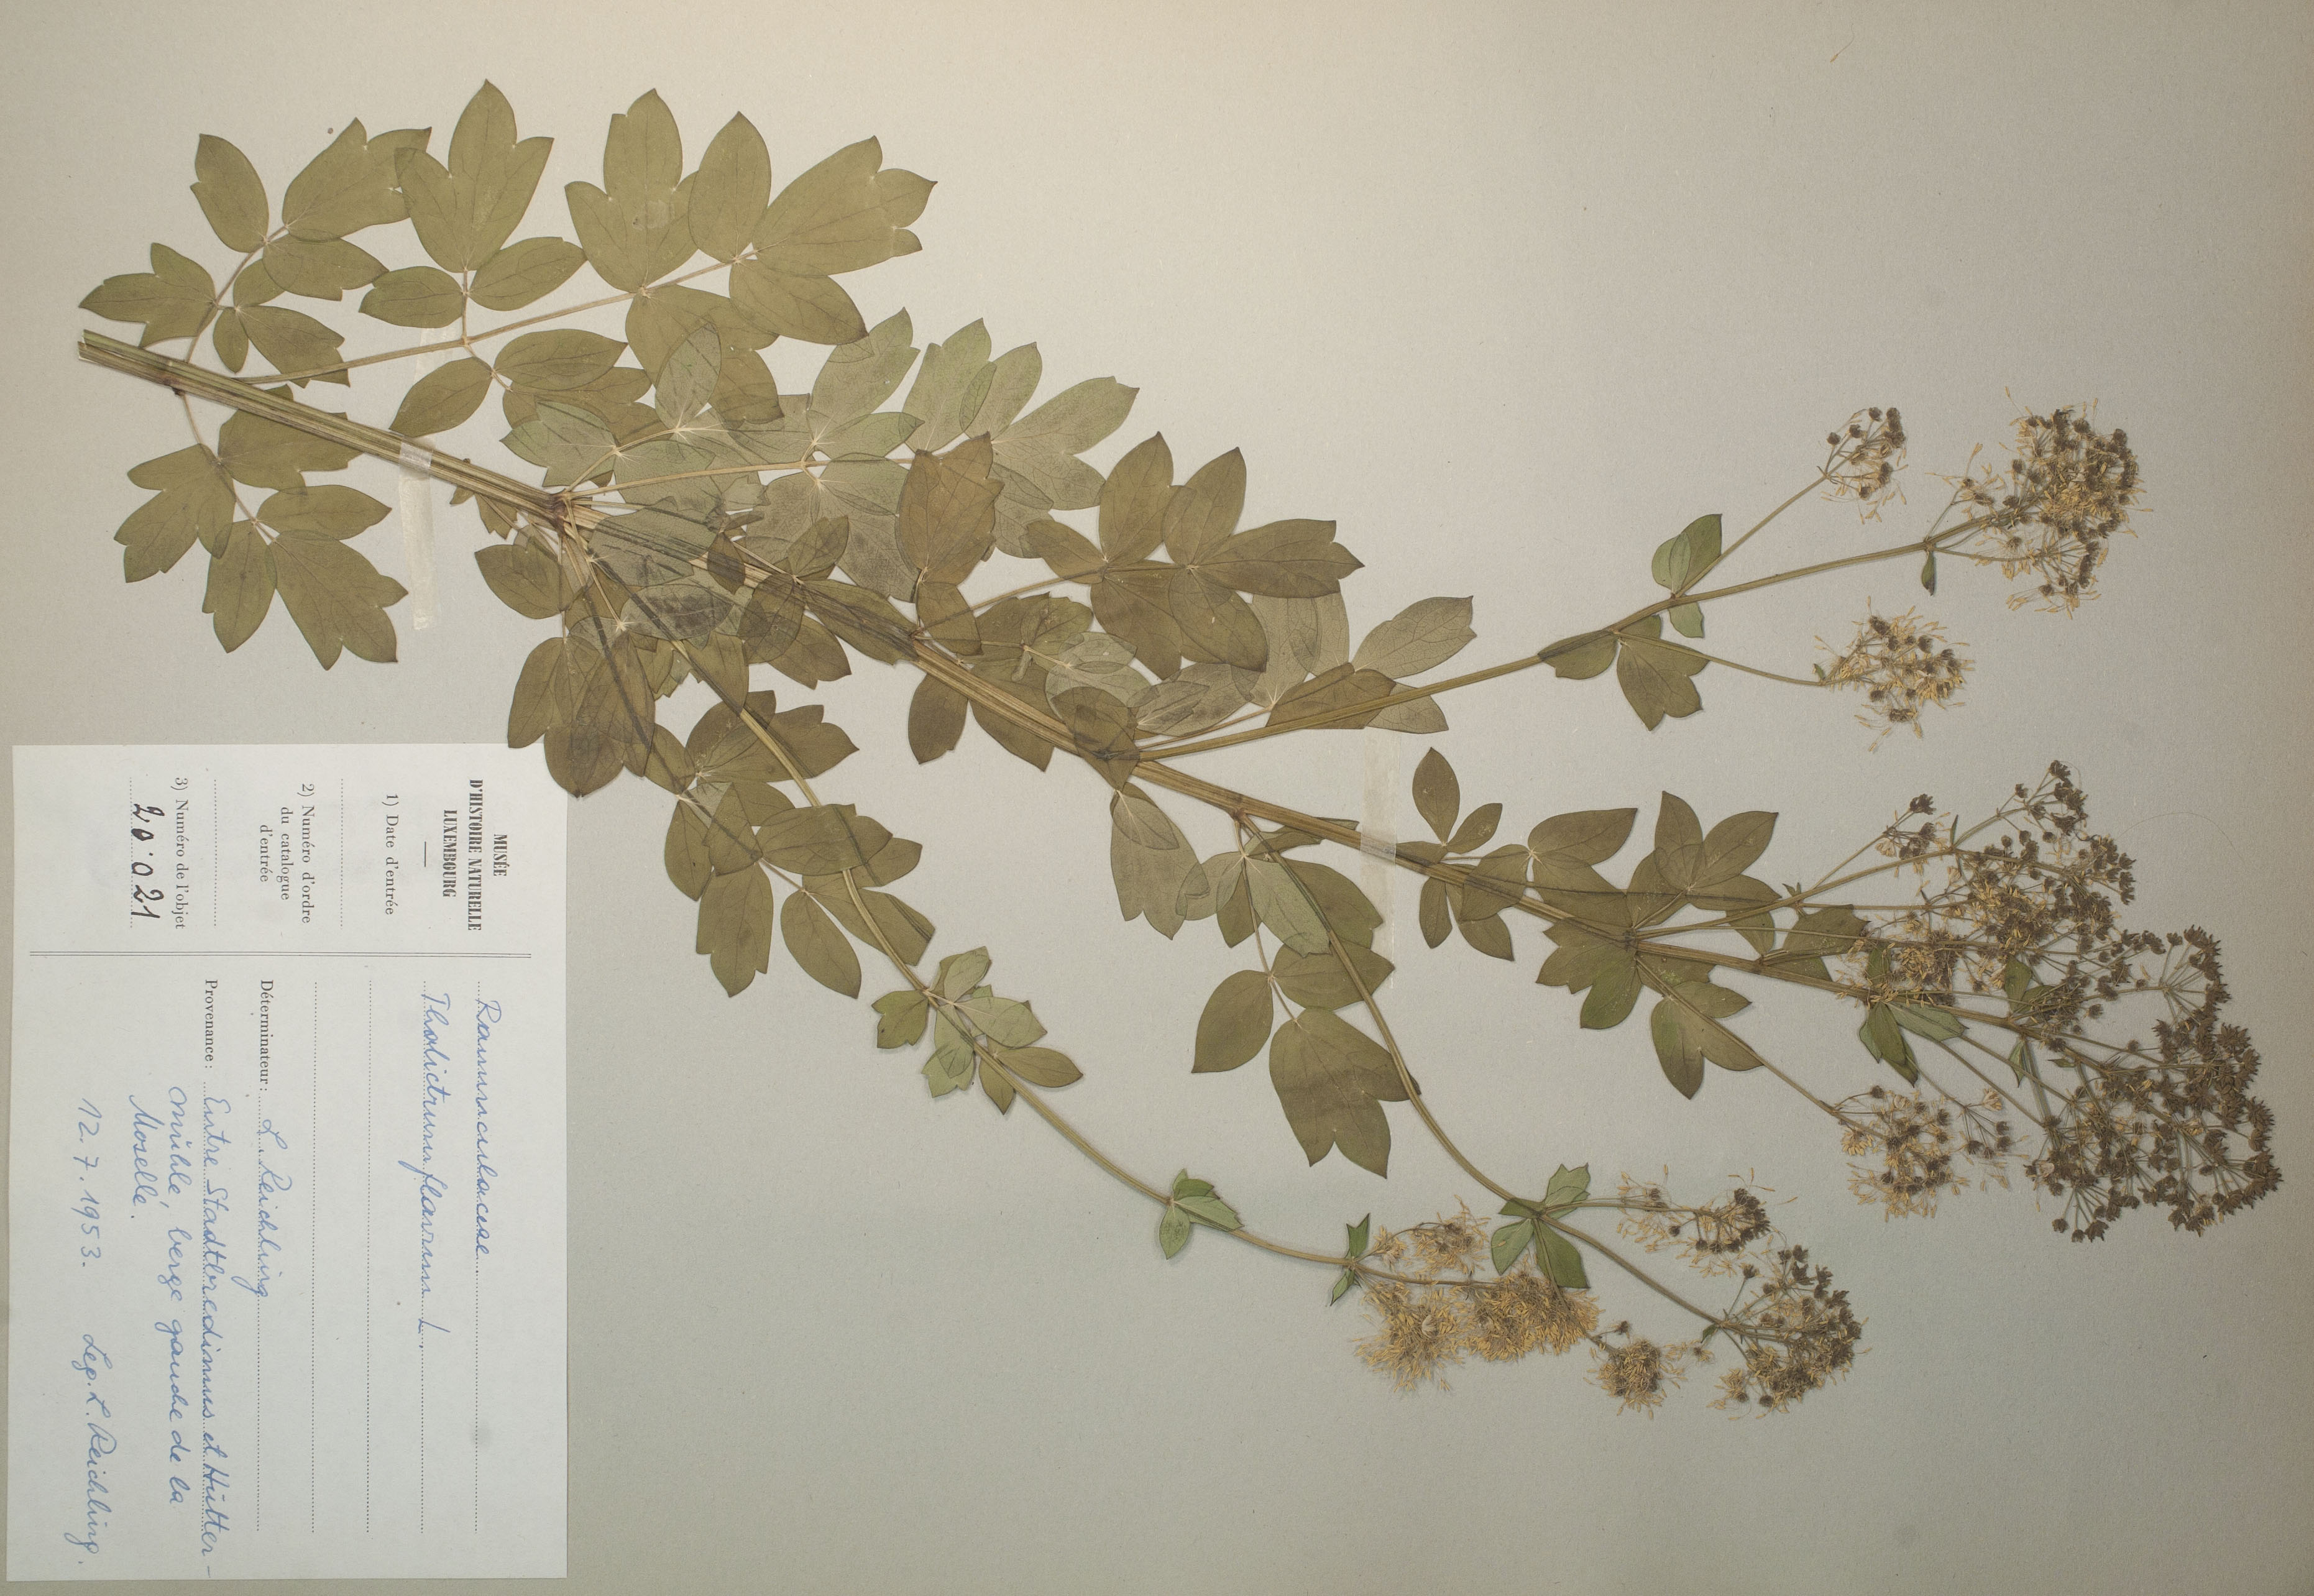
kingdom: Plantae
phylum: Tracheophyta
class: Magnoliopsida
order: Ranunculales
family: Ranunculaceae
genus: Thalictrum
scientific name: Thalictrum flavum
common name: Common meadow-rue
